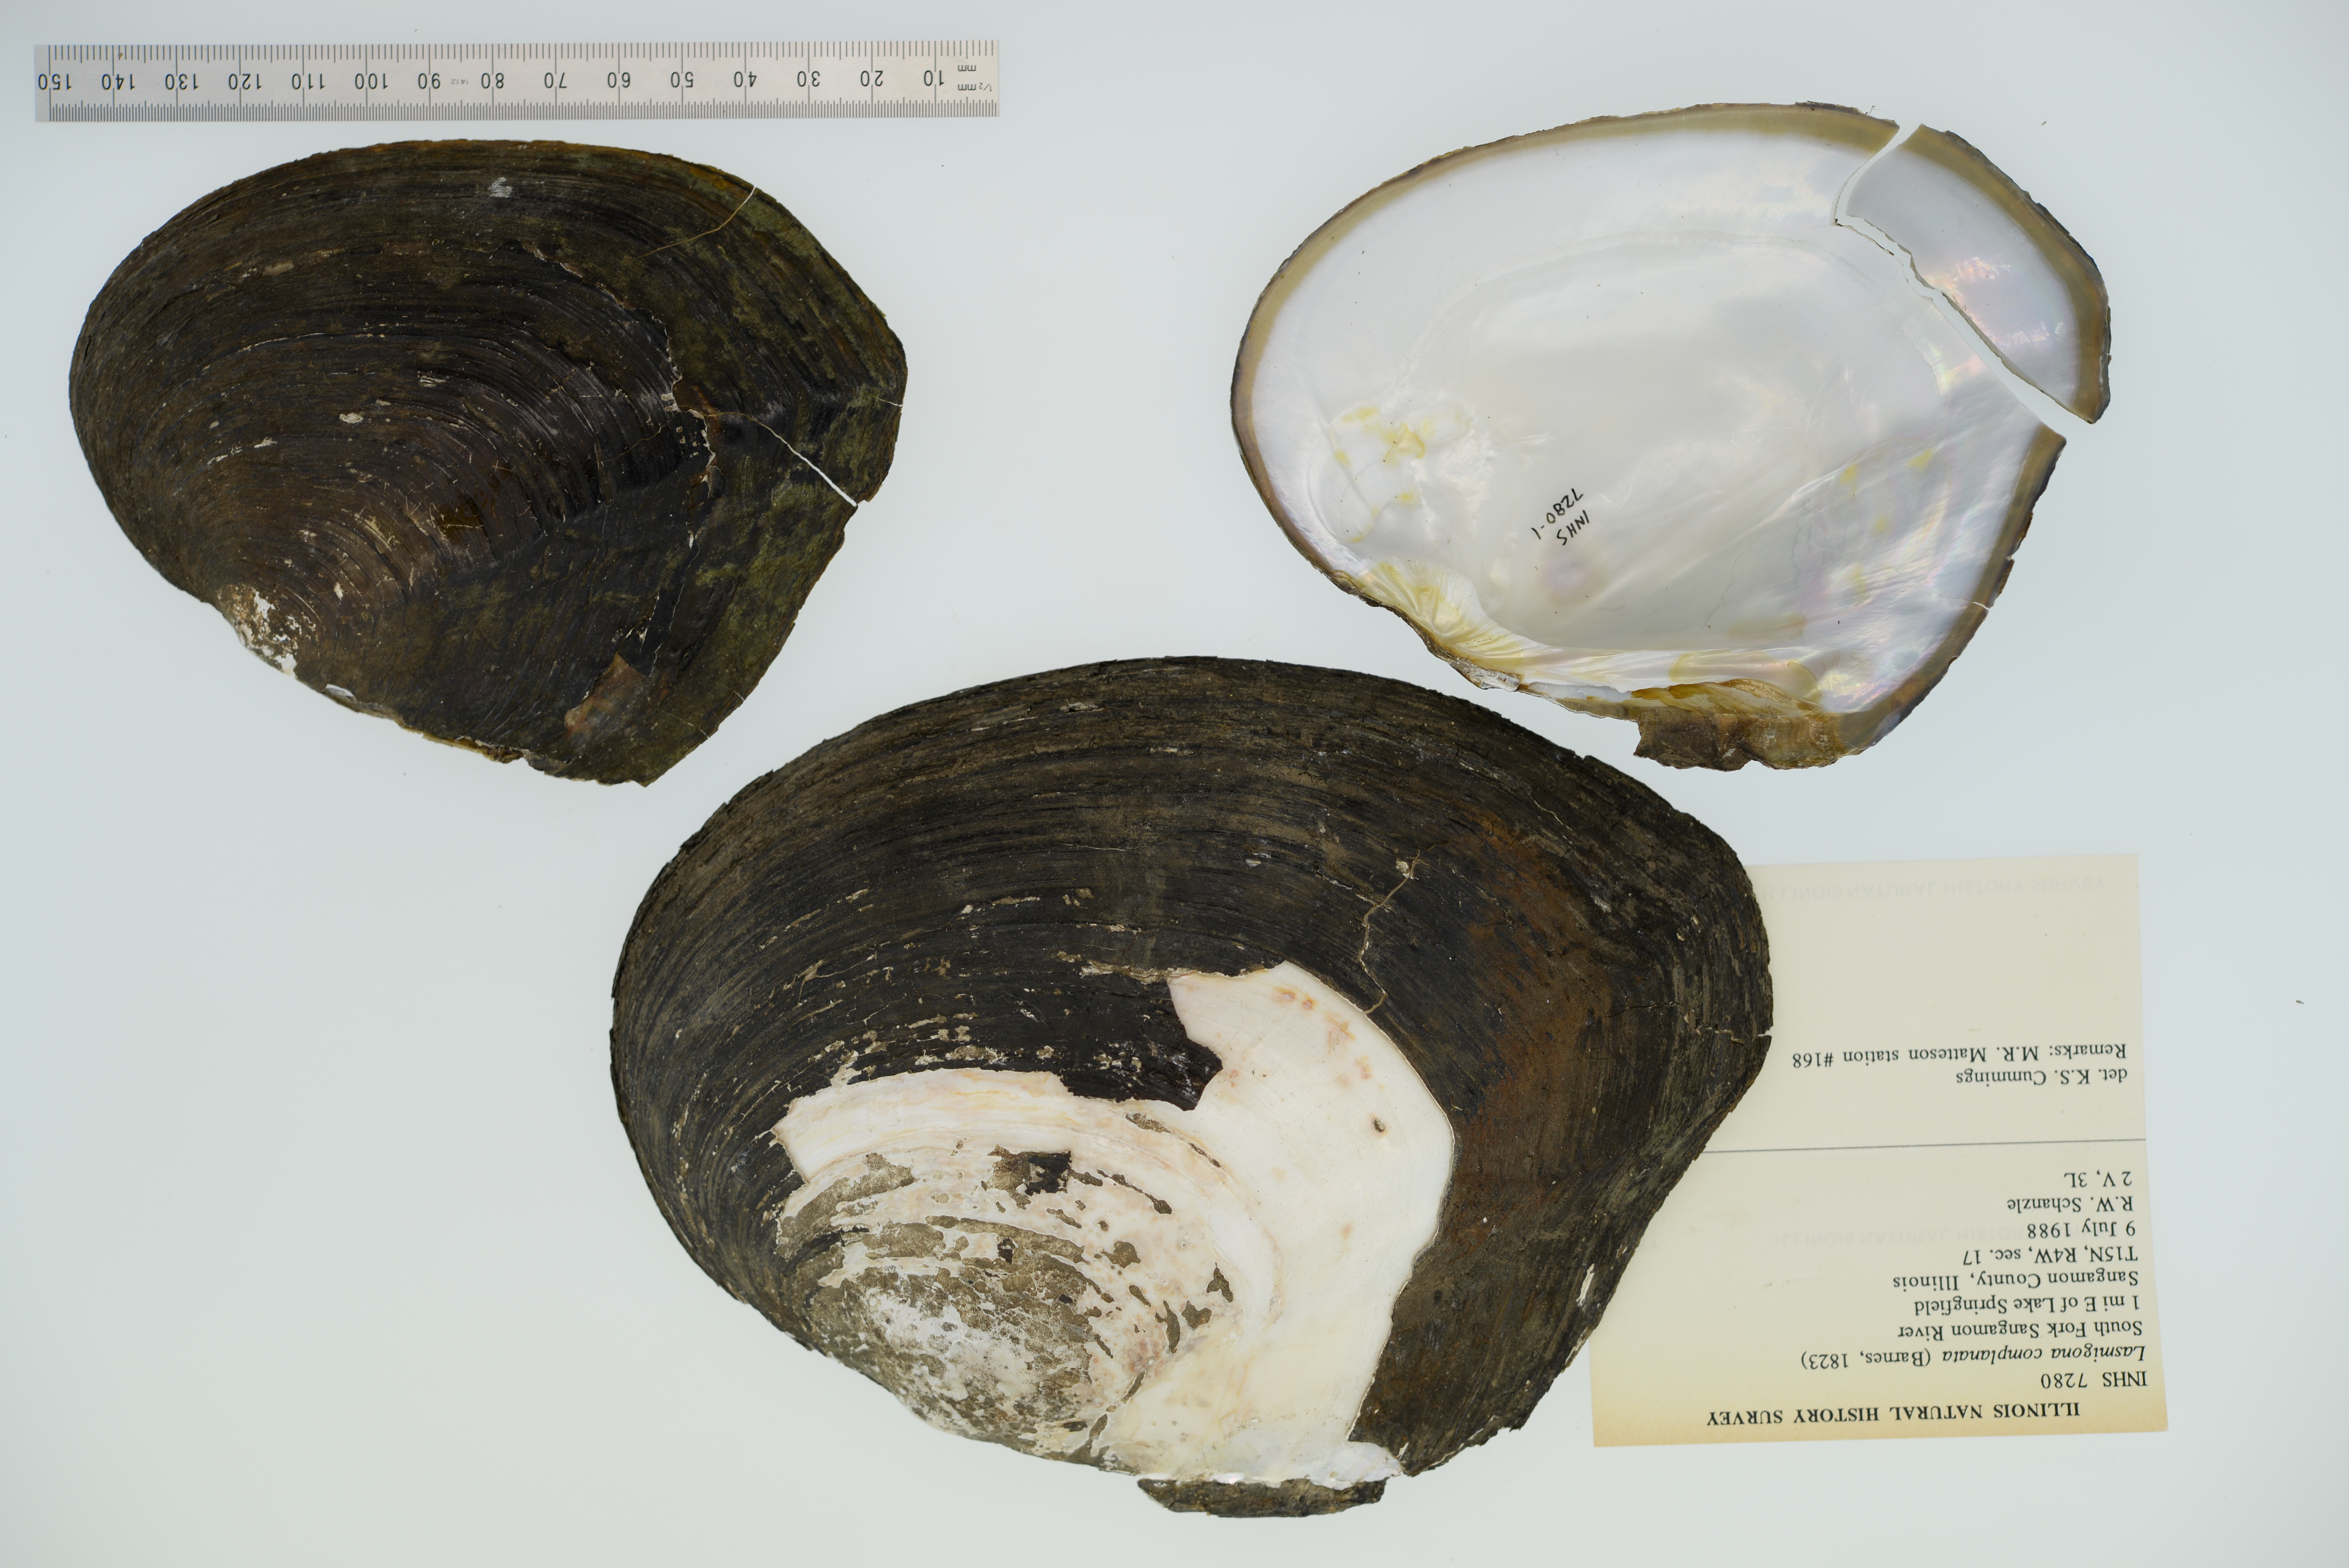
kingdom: Animalia
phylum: Mollusca
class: Bivalvia
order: Unionida
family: Unionidae
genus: Lasmigona
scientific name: Lasmigona complanata
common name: White heelsplitter
